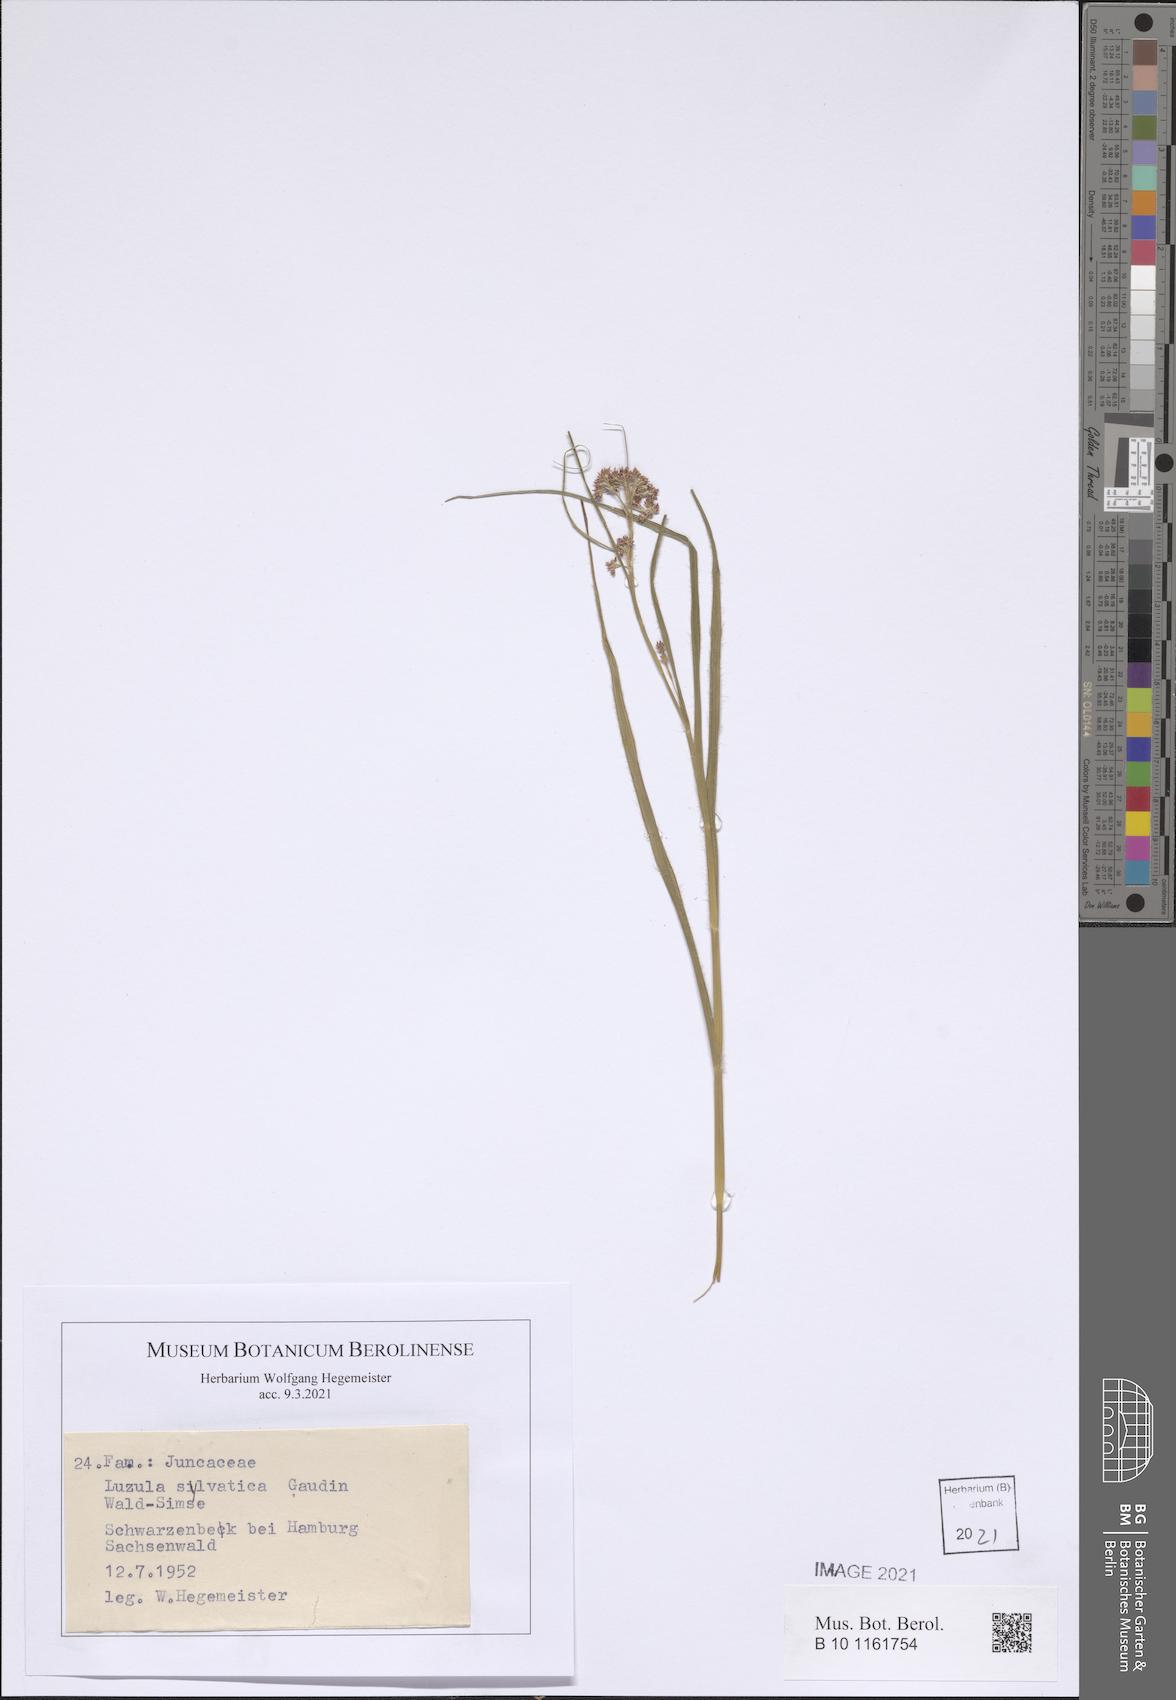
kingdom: Plantae
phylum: Tracheophyta
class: Liliopsida
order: Poales
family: Juncaceae
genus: Luzula
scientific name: Luzula sylvatica
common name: Great wood-rush
